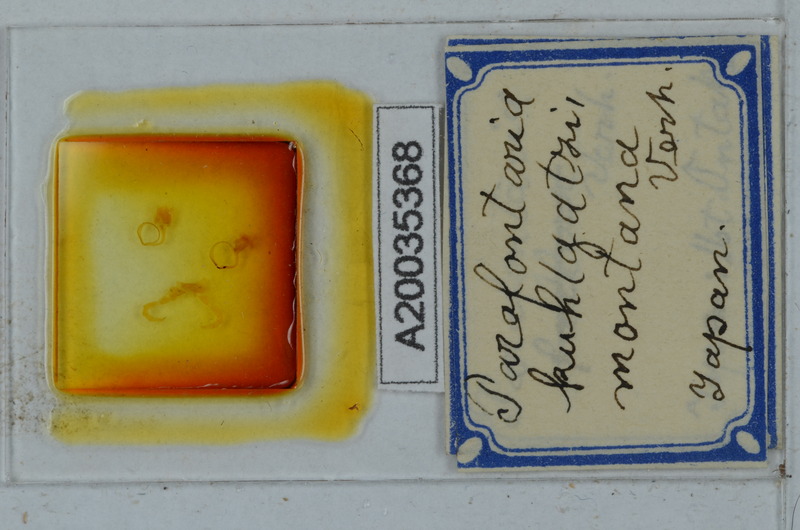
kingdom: Animalia
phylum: Arthropoda
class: Diplopoda
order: Polydesmida
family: Xystodesmidae
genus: Parafontaria
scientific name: Parafontaria
